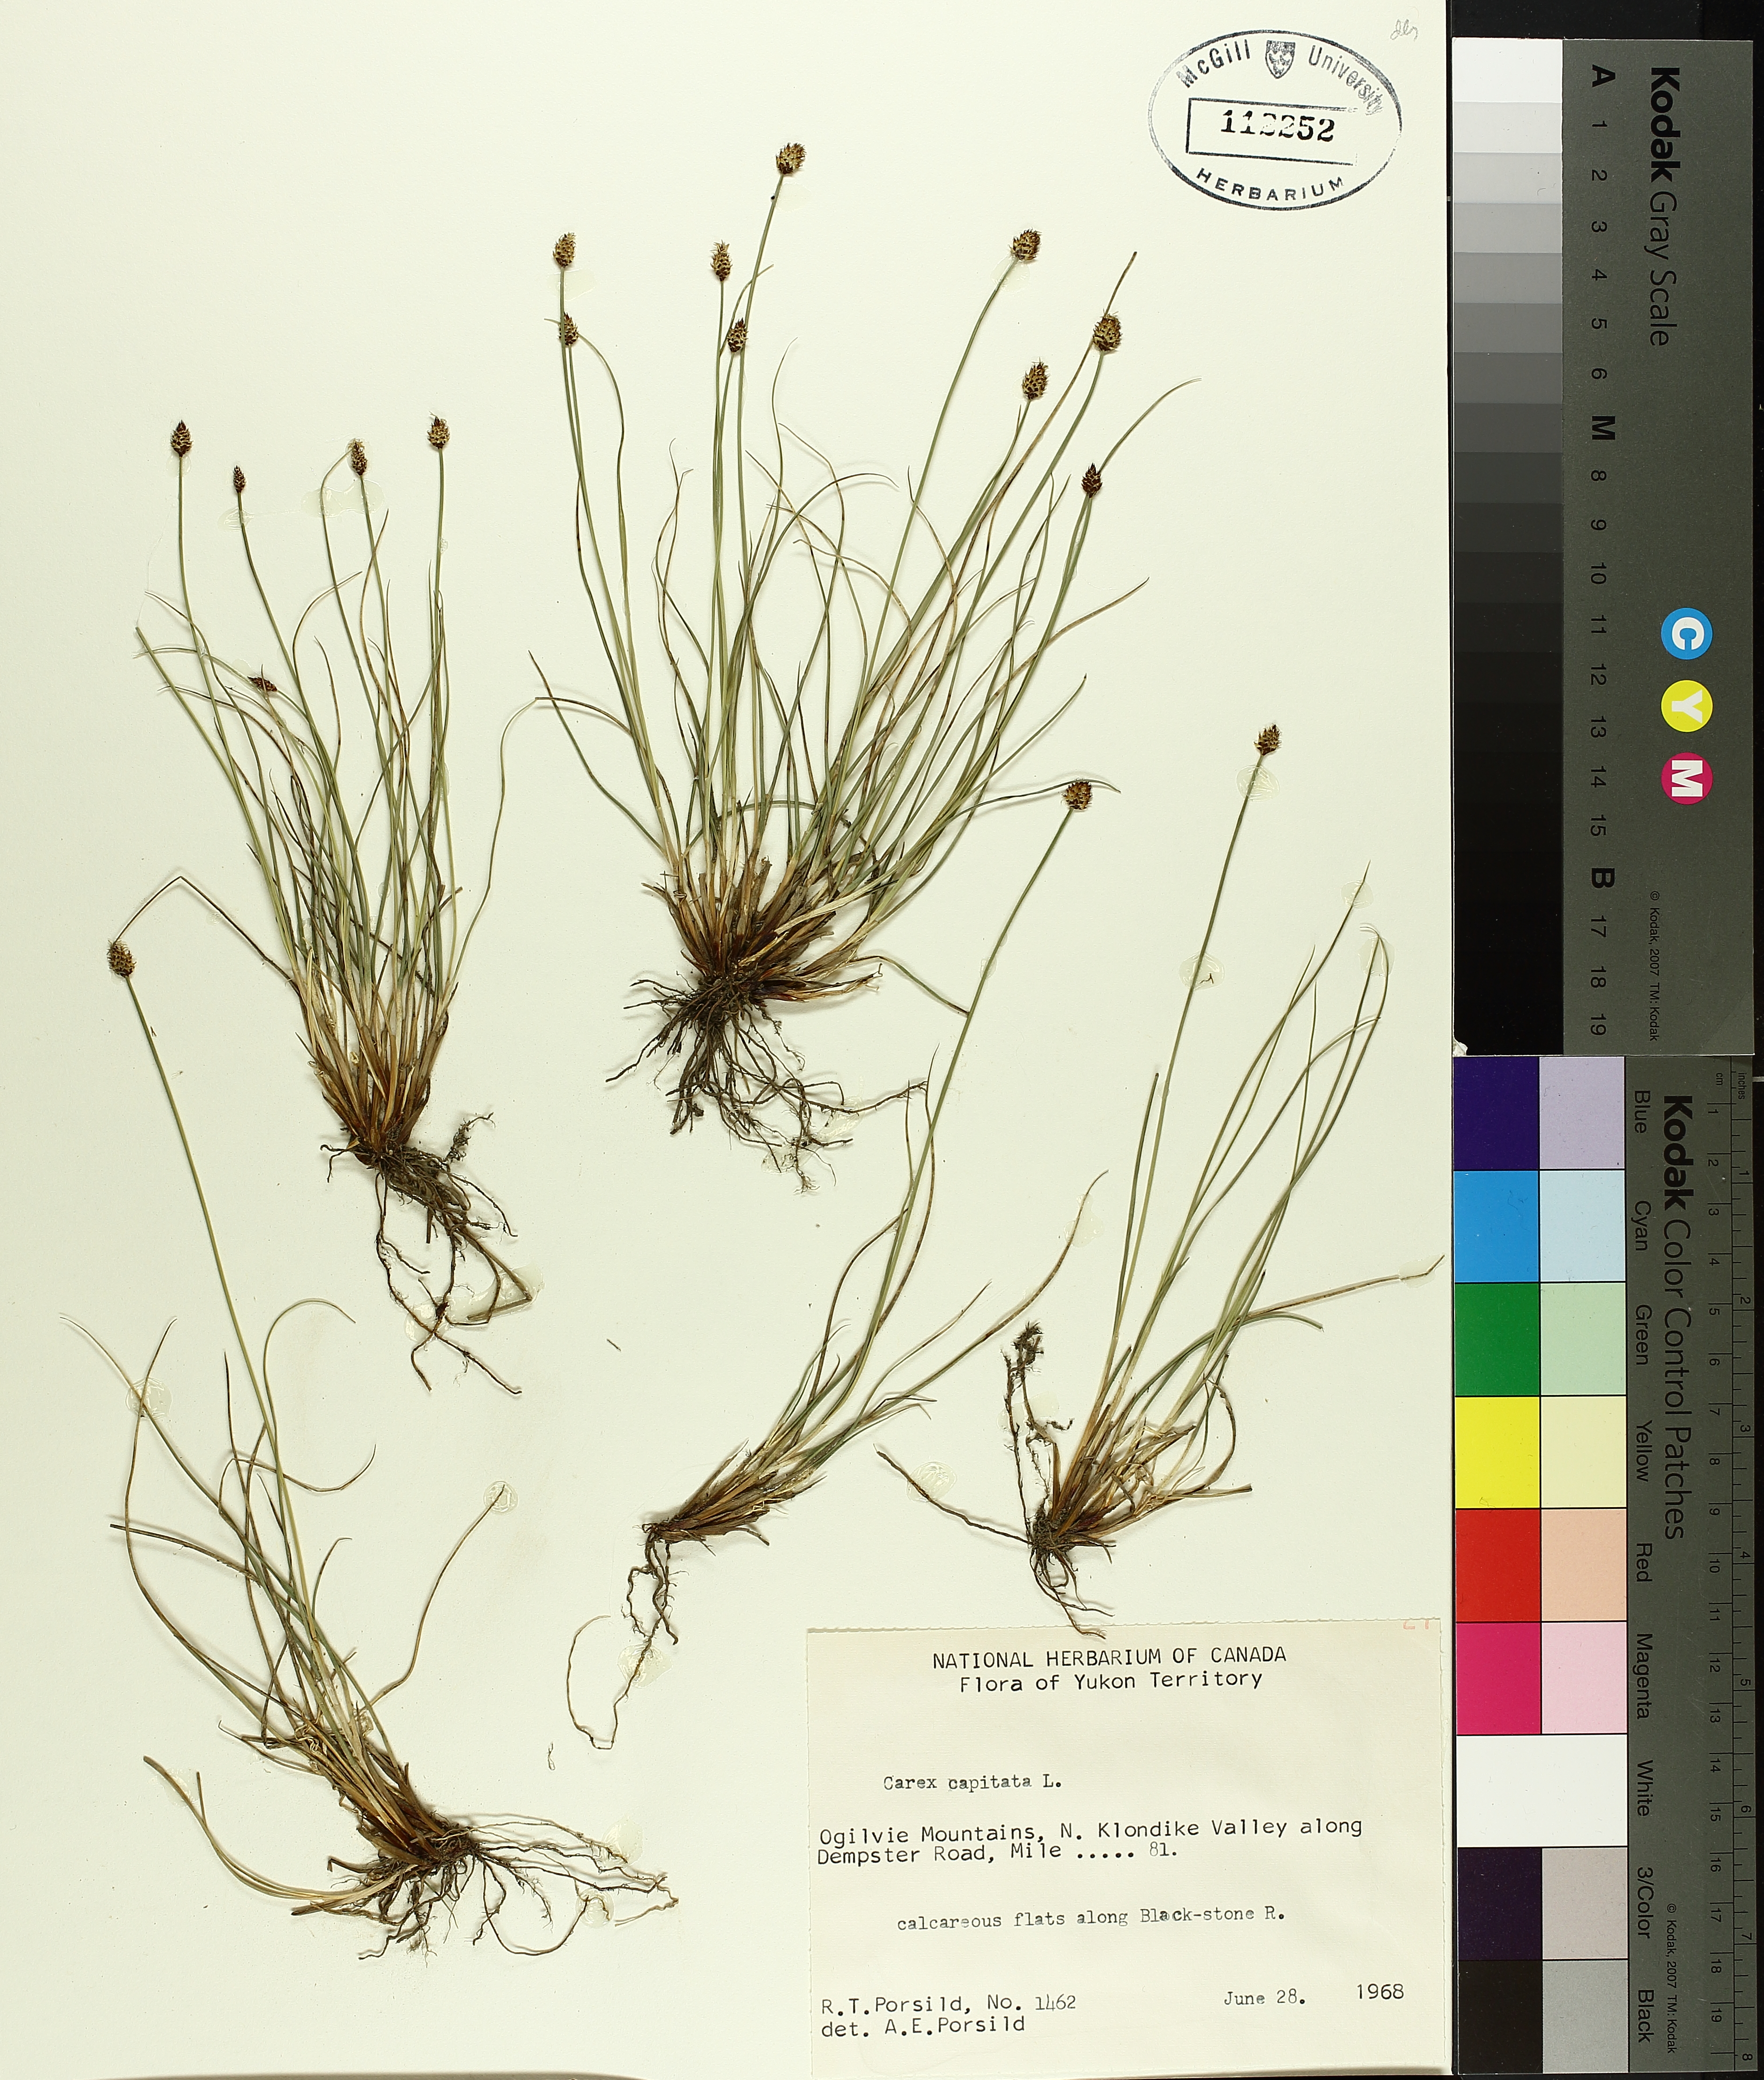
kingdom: Plantae
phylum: Tracheophyta
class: Liliopsida
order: Poales
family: Cyperaceae
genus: Carex
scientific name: Carex capitata
